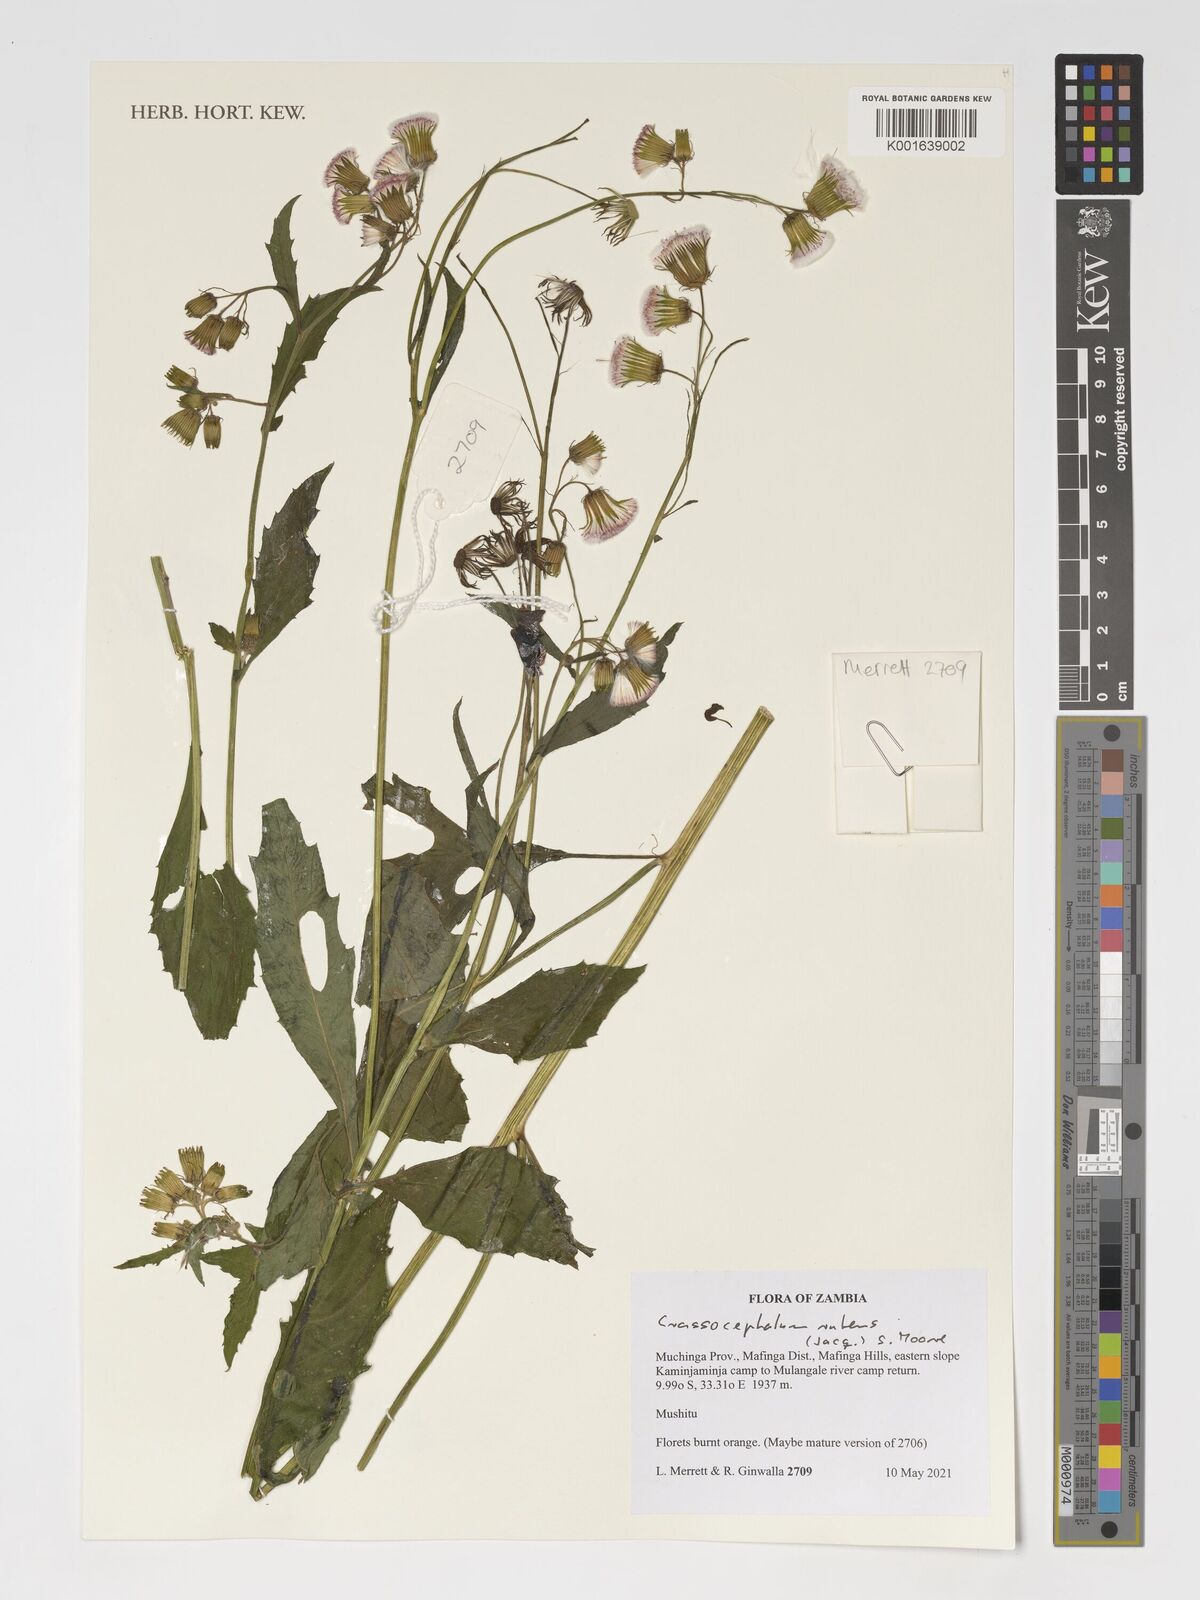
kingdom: Plantae
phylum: Tracheophyta
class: Magnoliopsida
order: Asterales
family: Asteraceae
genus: Crassocephalum
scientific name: Crassocephalum rubens
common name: Yoruban bologi
